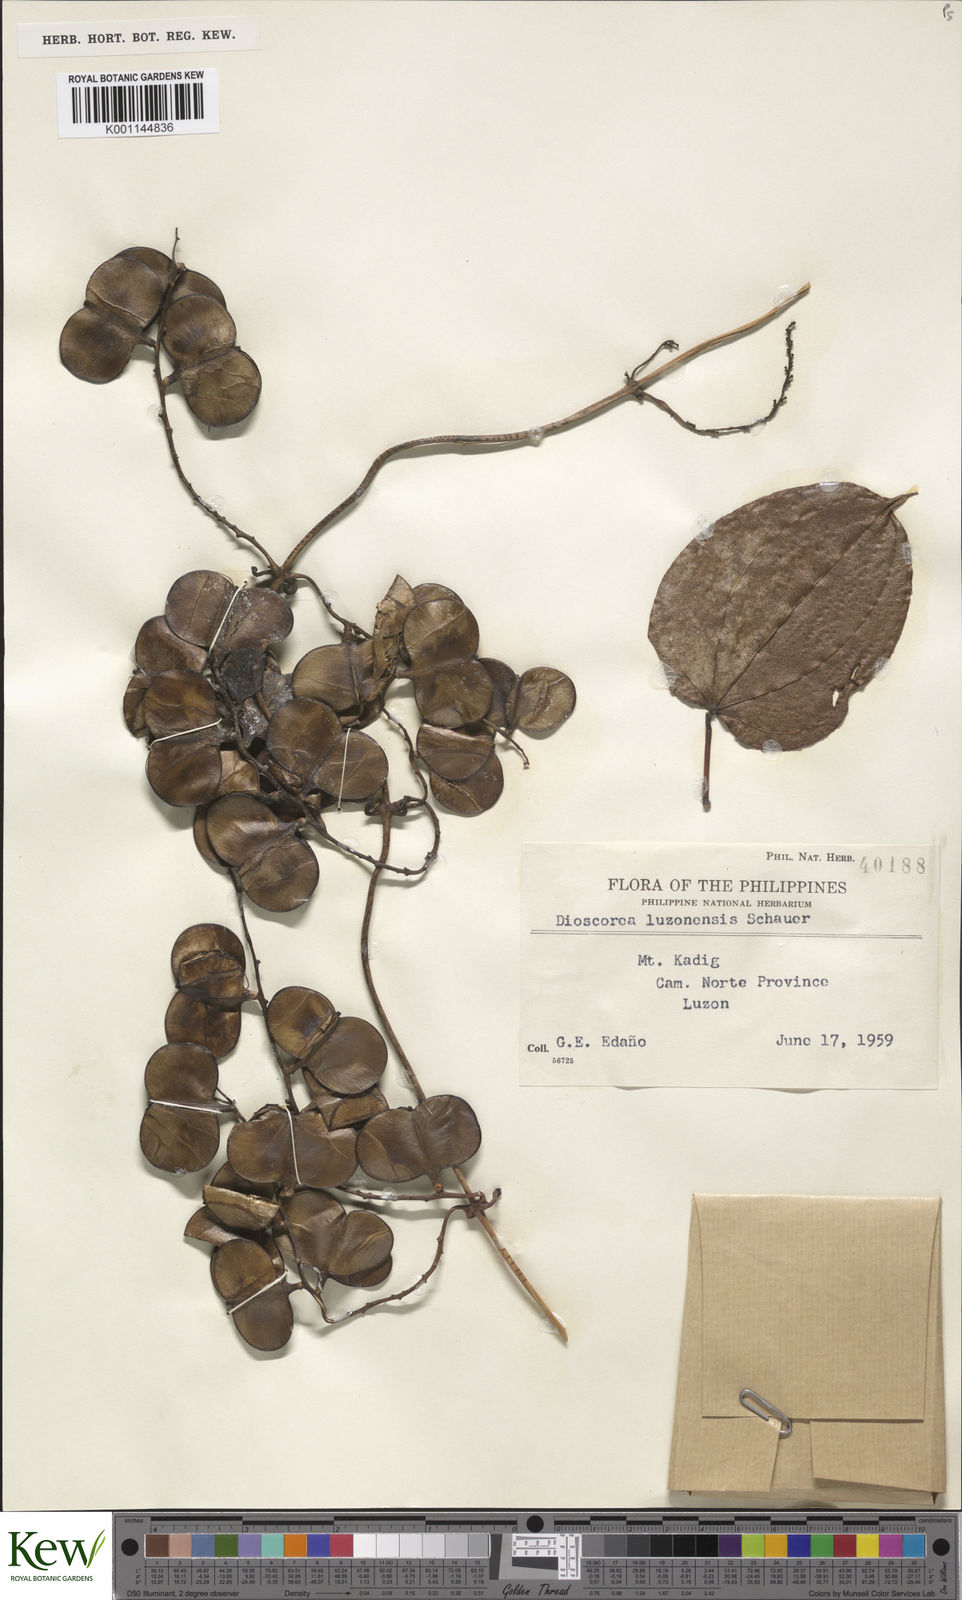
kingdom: Plantae
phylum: Tracheophyta
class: Liliopsida
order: Dioscoreales
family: Dioscoreaceae
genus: Dioscorea
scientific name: Dioscorea
